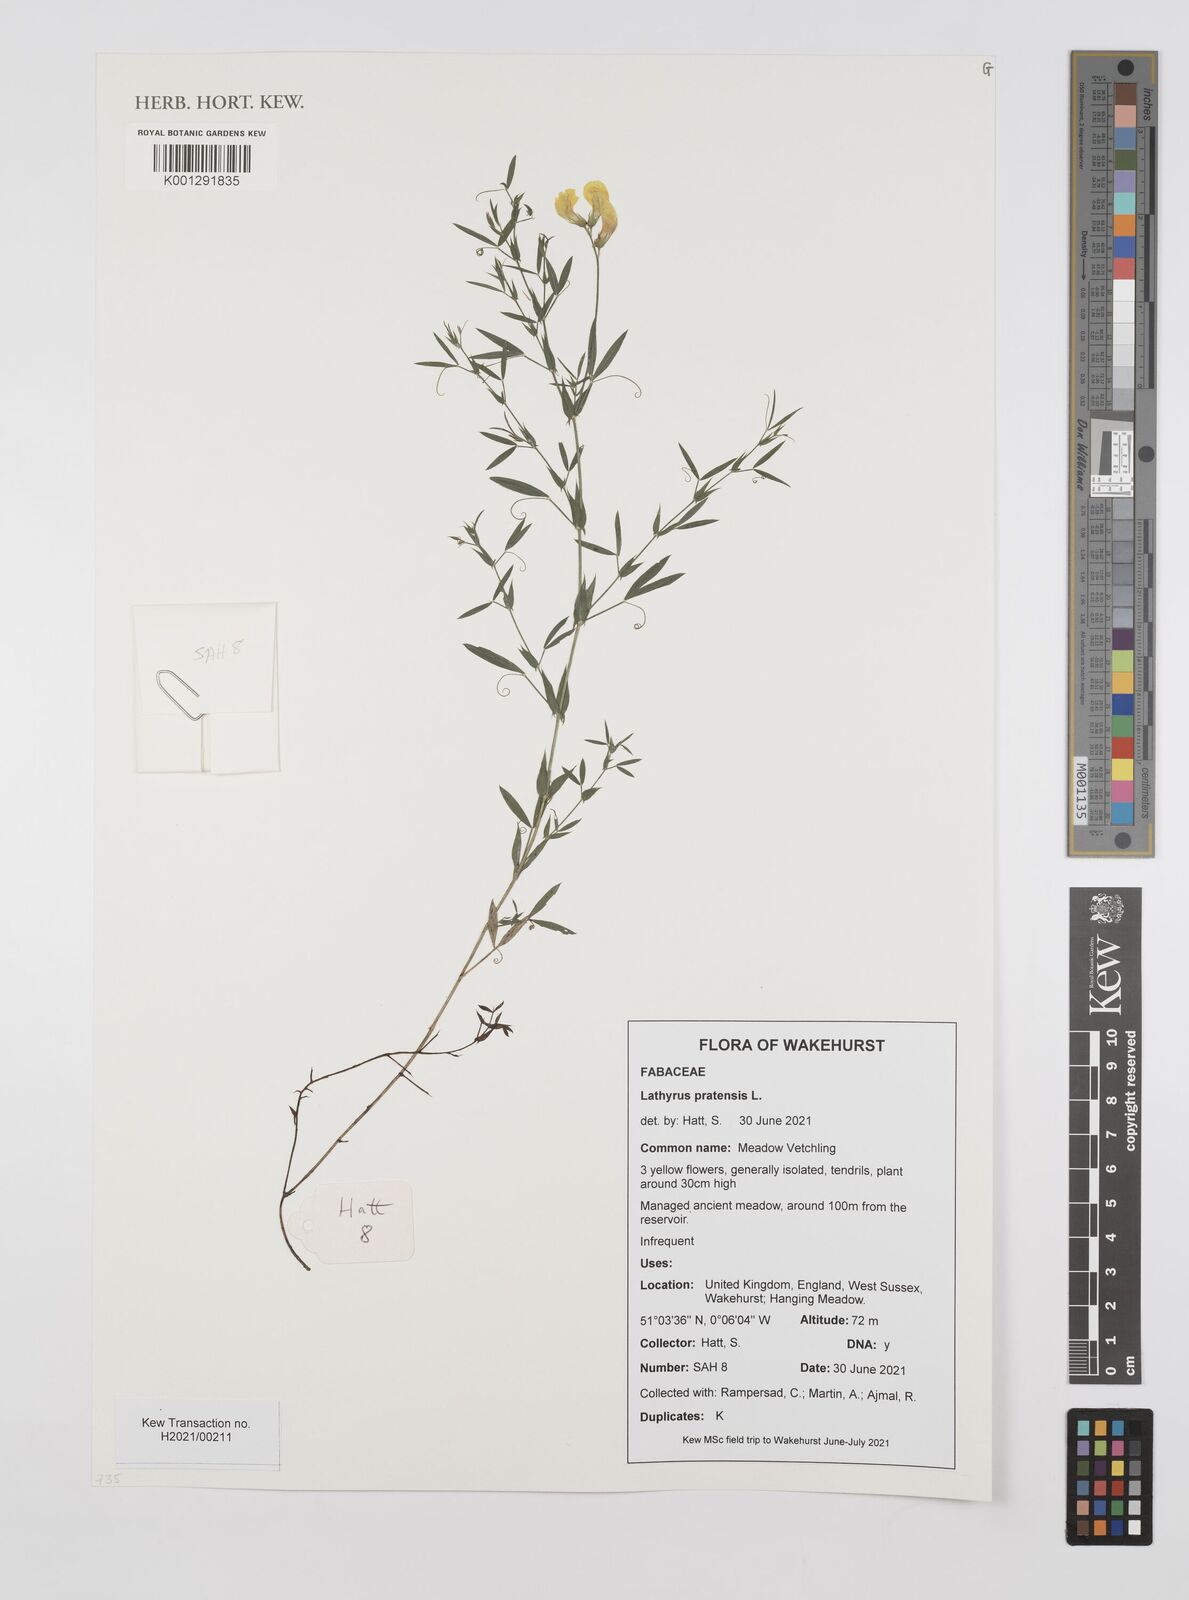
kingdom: Plantae
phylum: Tracheophyta
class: Magnoliopsida
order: Fabales
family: Fabaceae
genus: Lathyrus
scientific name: Lathyrus pratensis
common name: Meadow vetchling
